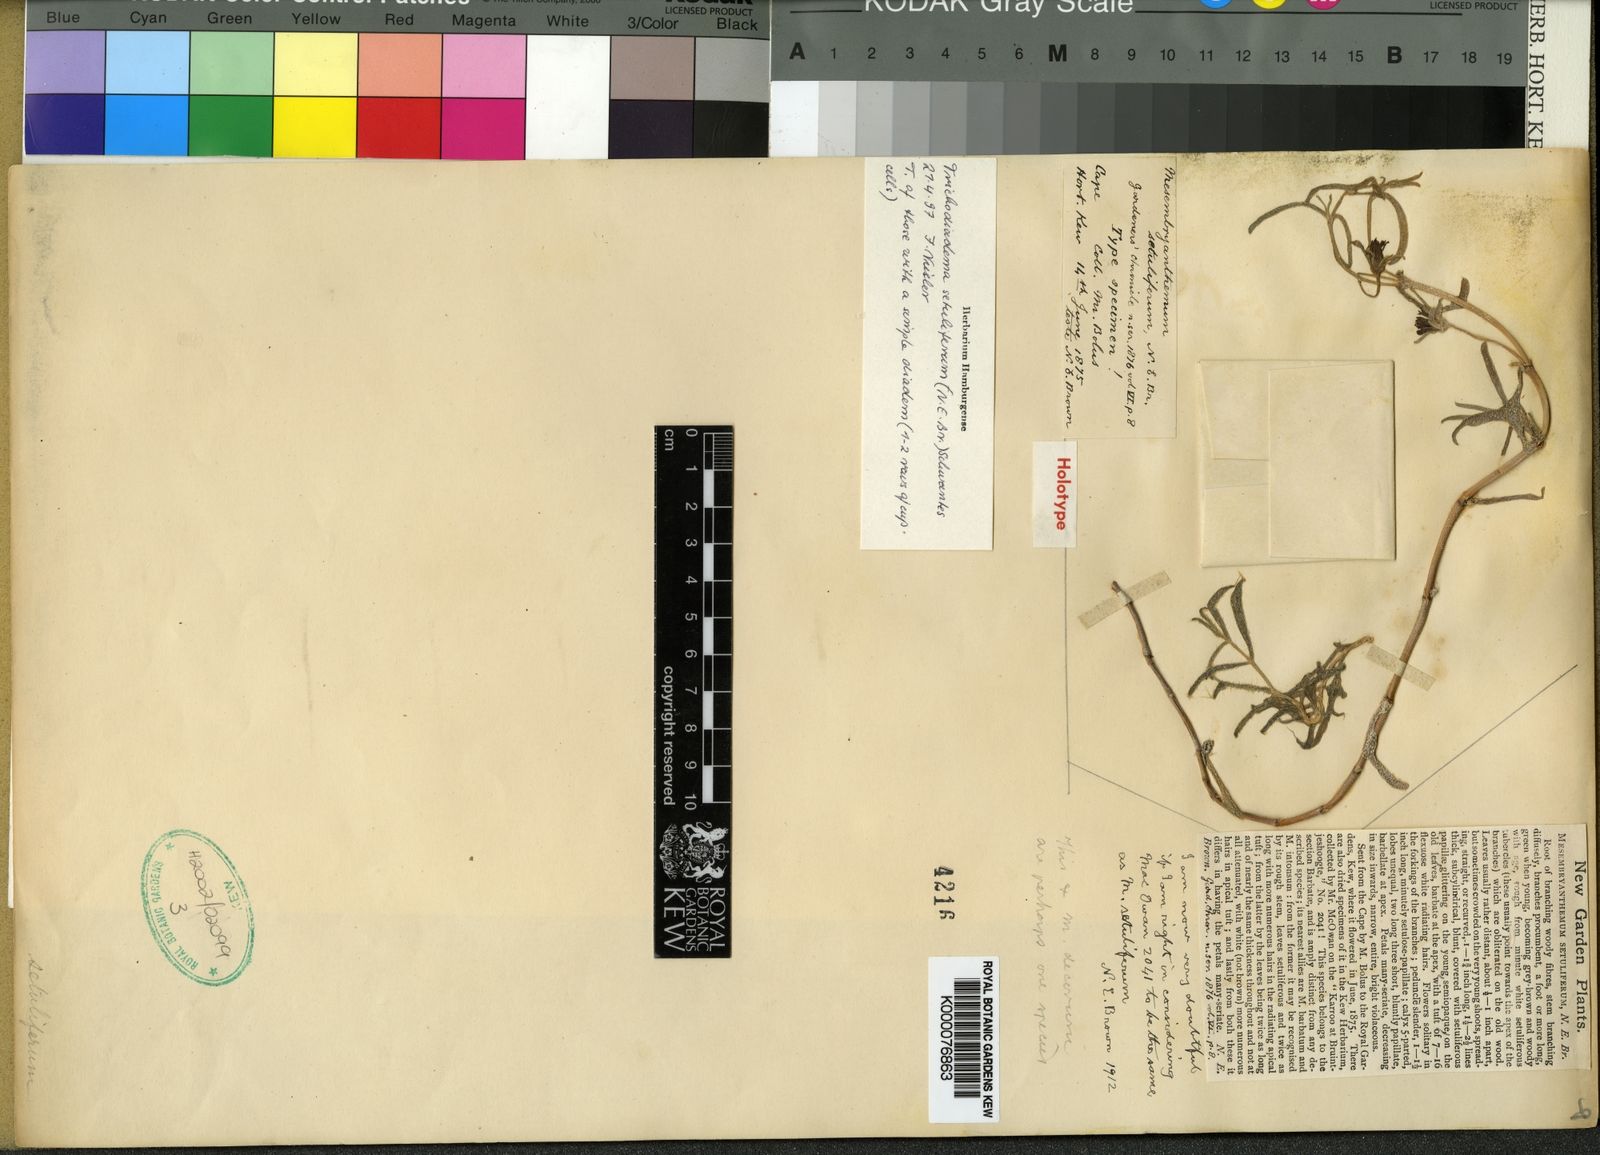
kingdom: Plantae
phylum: Tracheophyta
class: Magnoliopsida
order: Caryophyllales
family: Aizoaceae
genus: Trichodiadema
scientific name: Trichodiadema setuliferum
